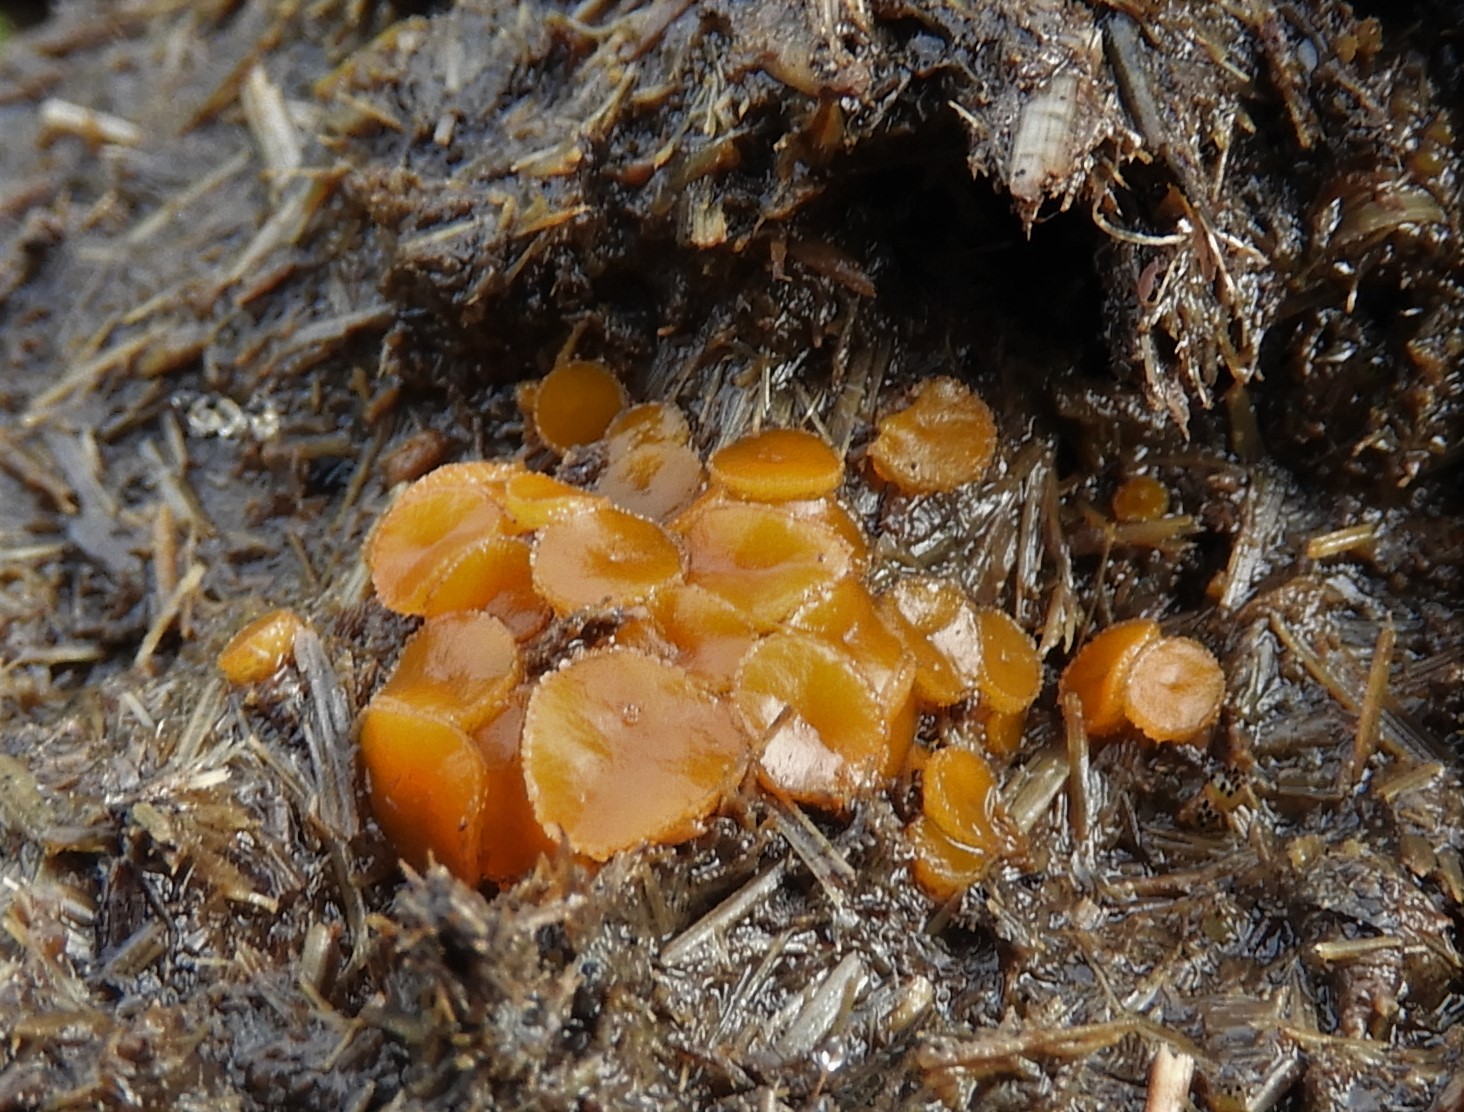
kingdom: Fungi
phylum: Ascomycota
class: Pezizomycetes
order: Pezizales
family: Pyronemataceae
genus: Cheilymenia
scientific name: Cheilymenia granulata
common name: møgbæger
